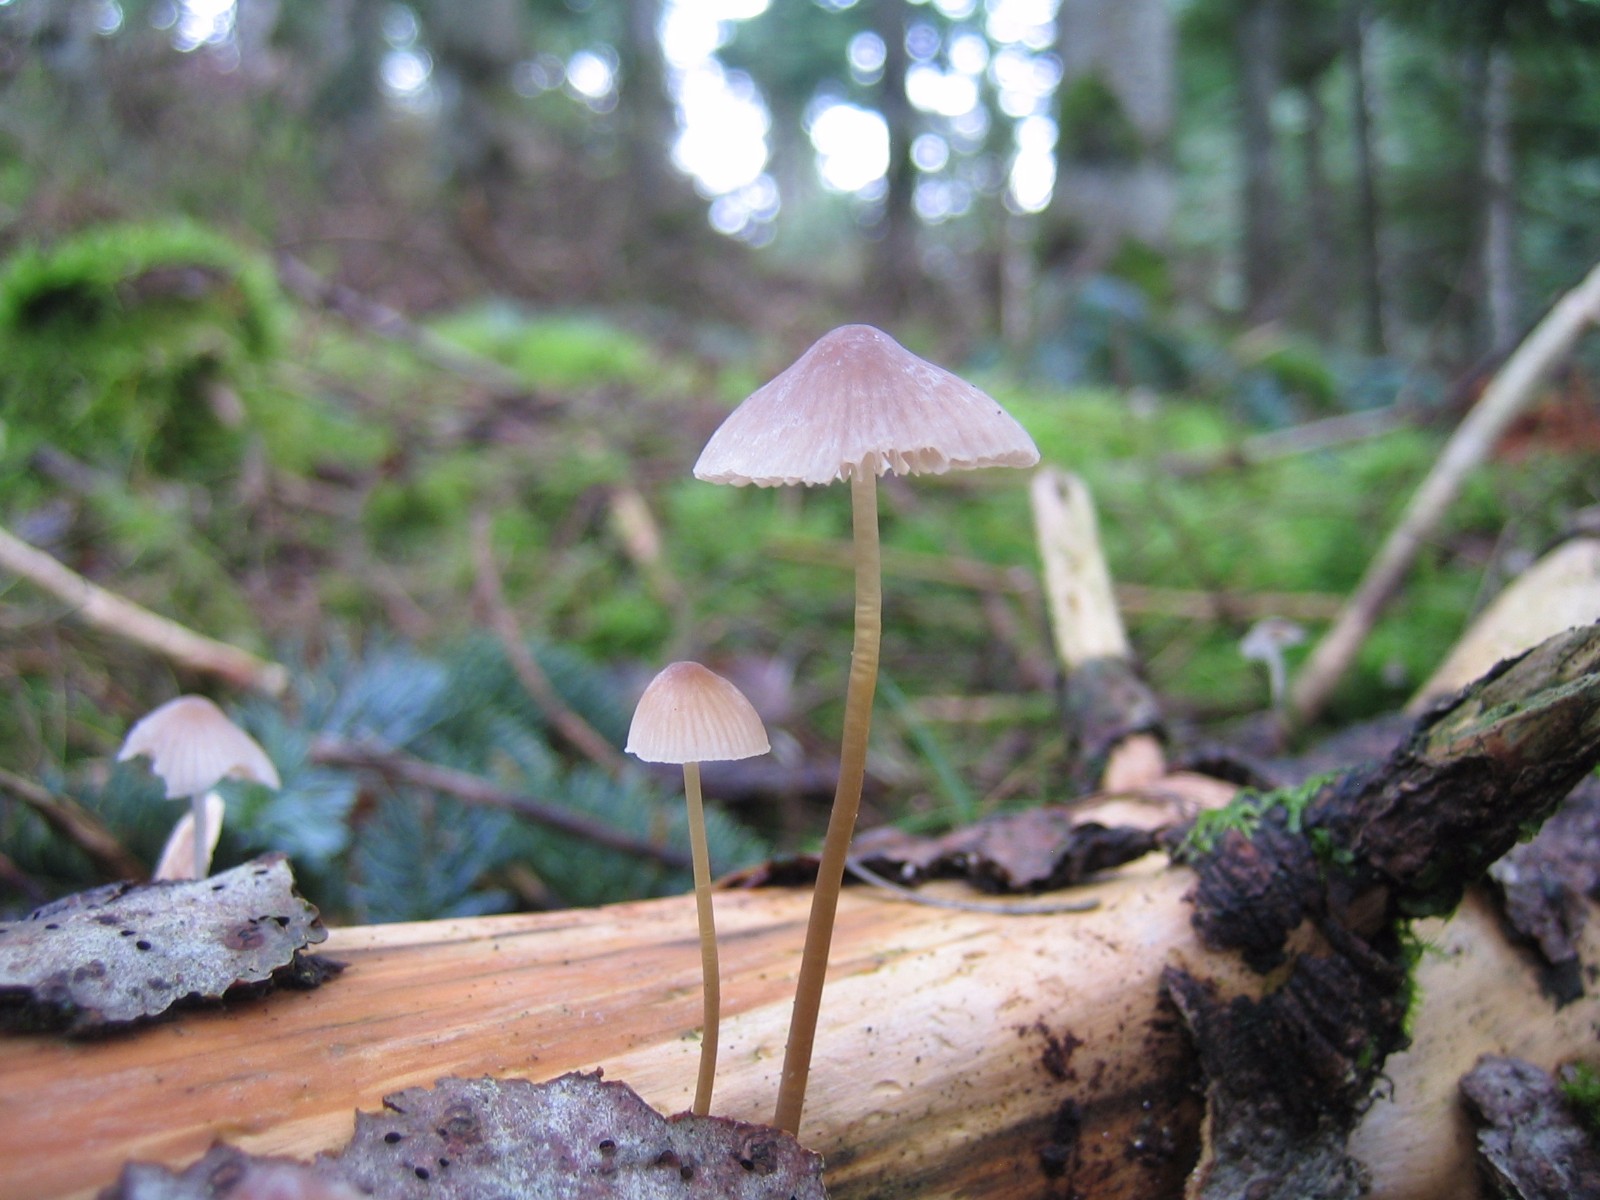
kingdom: Fungi
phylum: Basidiomycota
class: Agaricomycetes
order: Agaricales
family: Mycenaceae
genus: Mycena
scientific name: Mycena
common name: huesvamp
